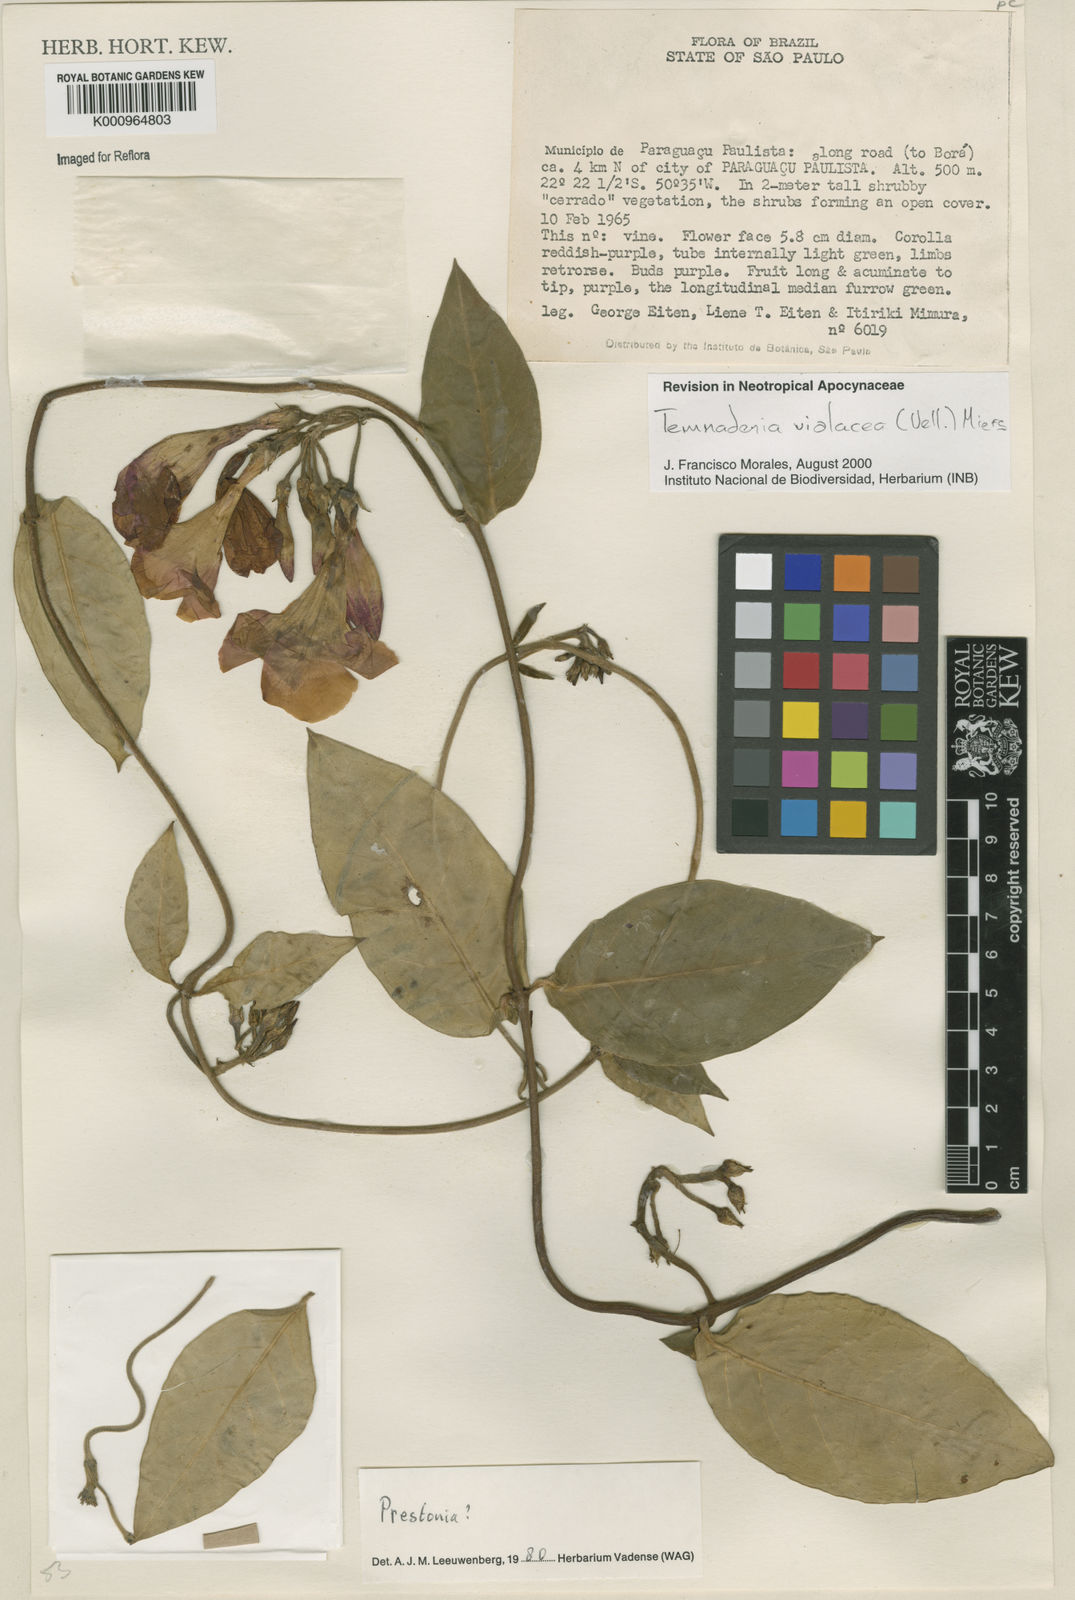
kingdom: Plantae
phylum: Tracheophyta
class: Magnoliopsida
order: Gentianales
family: Apocynaceae
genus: Temnadenia
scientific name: Temnadenia violacea
